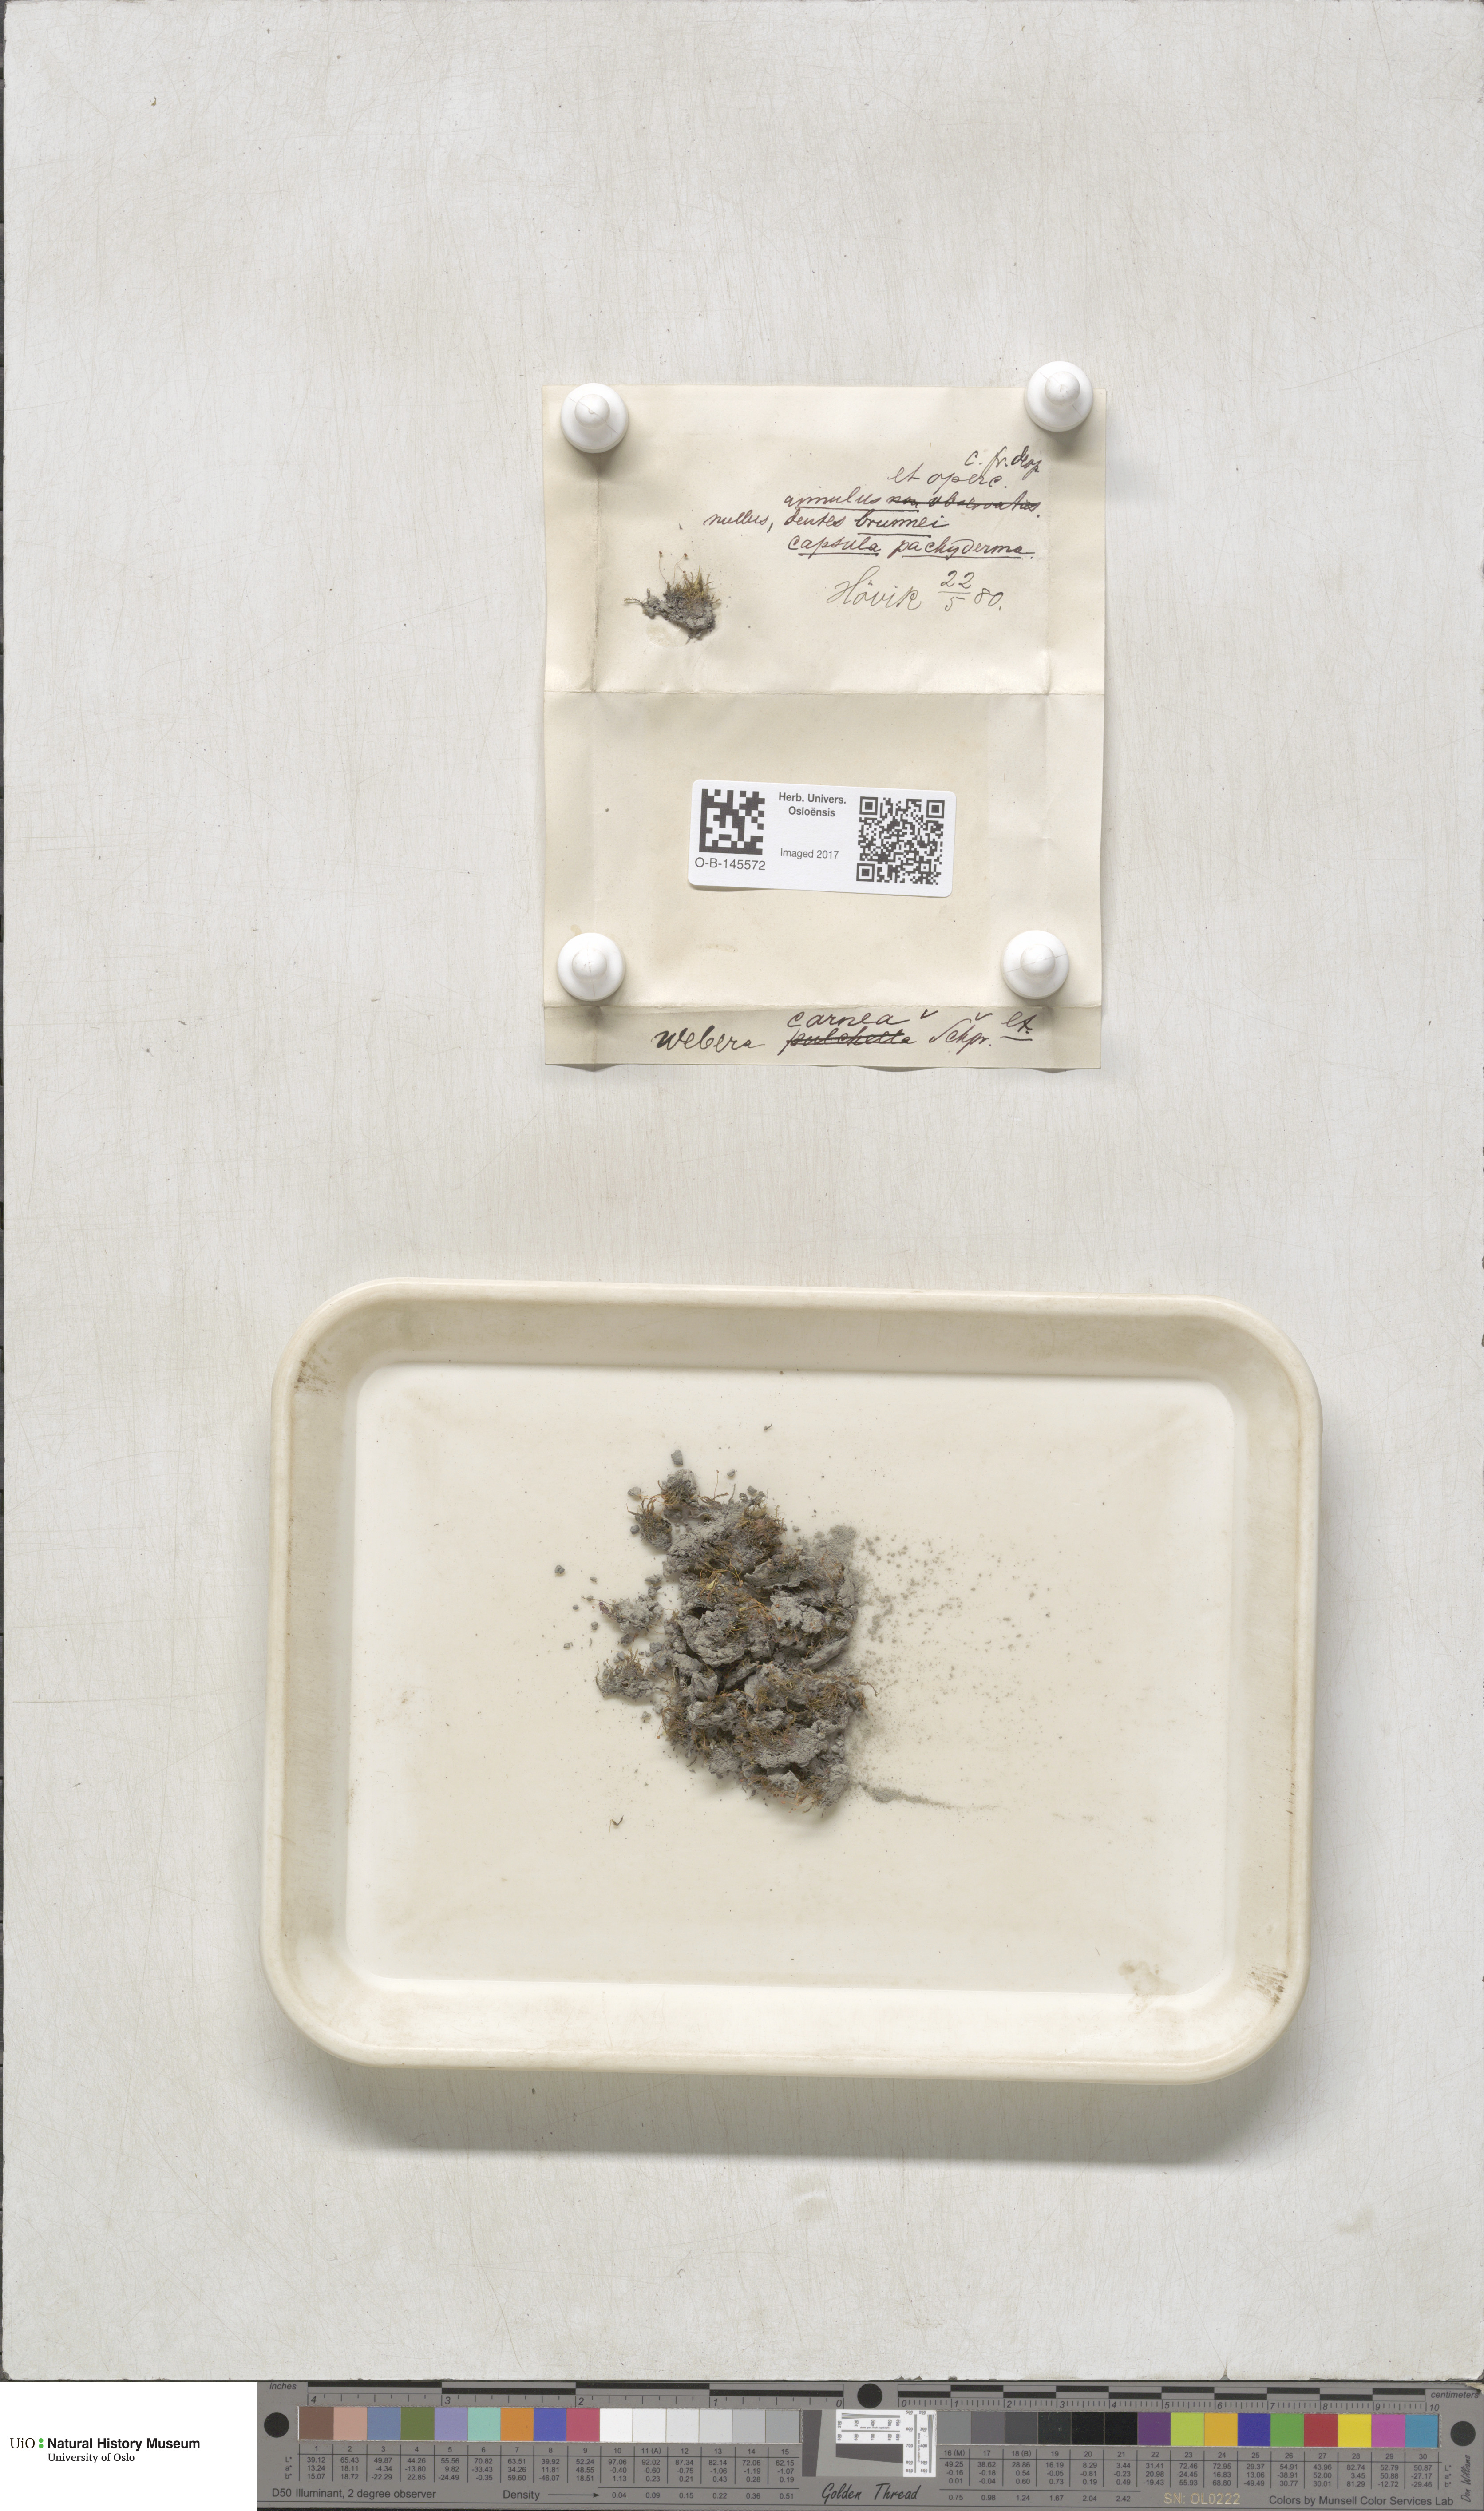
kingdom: Plantae
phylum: Bryophyta
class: Bryopsida
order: Bryales
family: Mniaceae
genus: Pohlia
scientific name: Pohlia melanodon
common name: Black-toothed nodding moss
